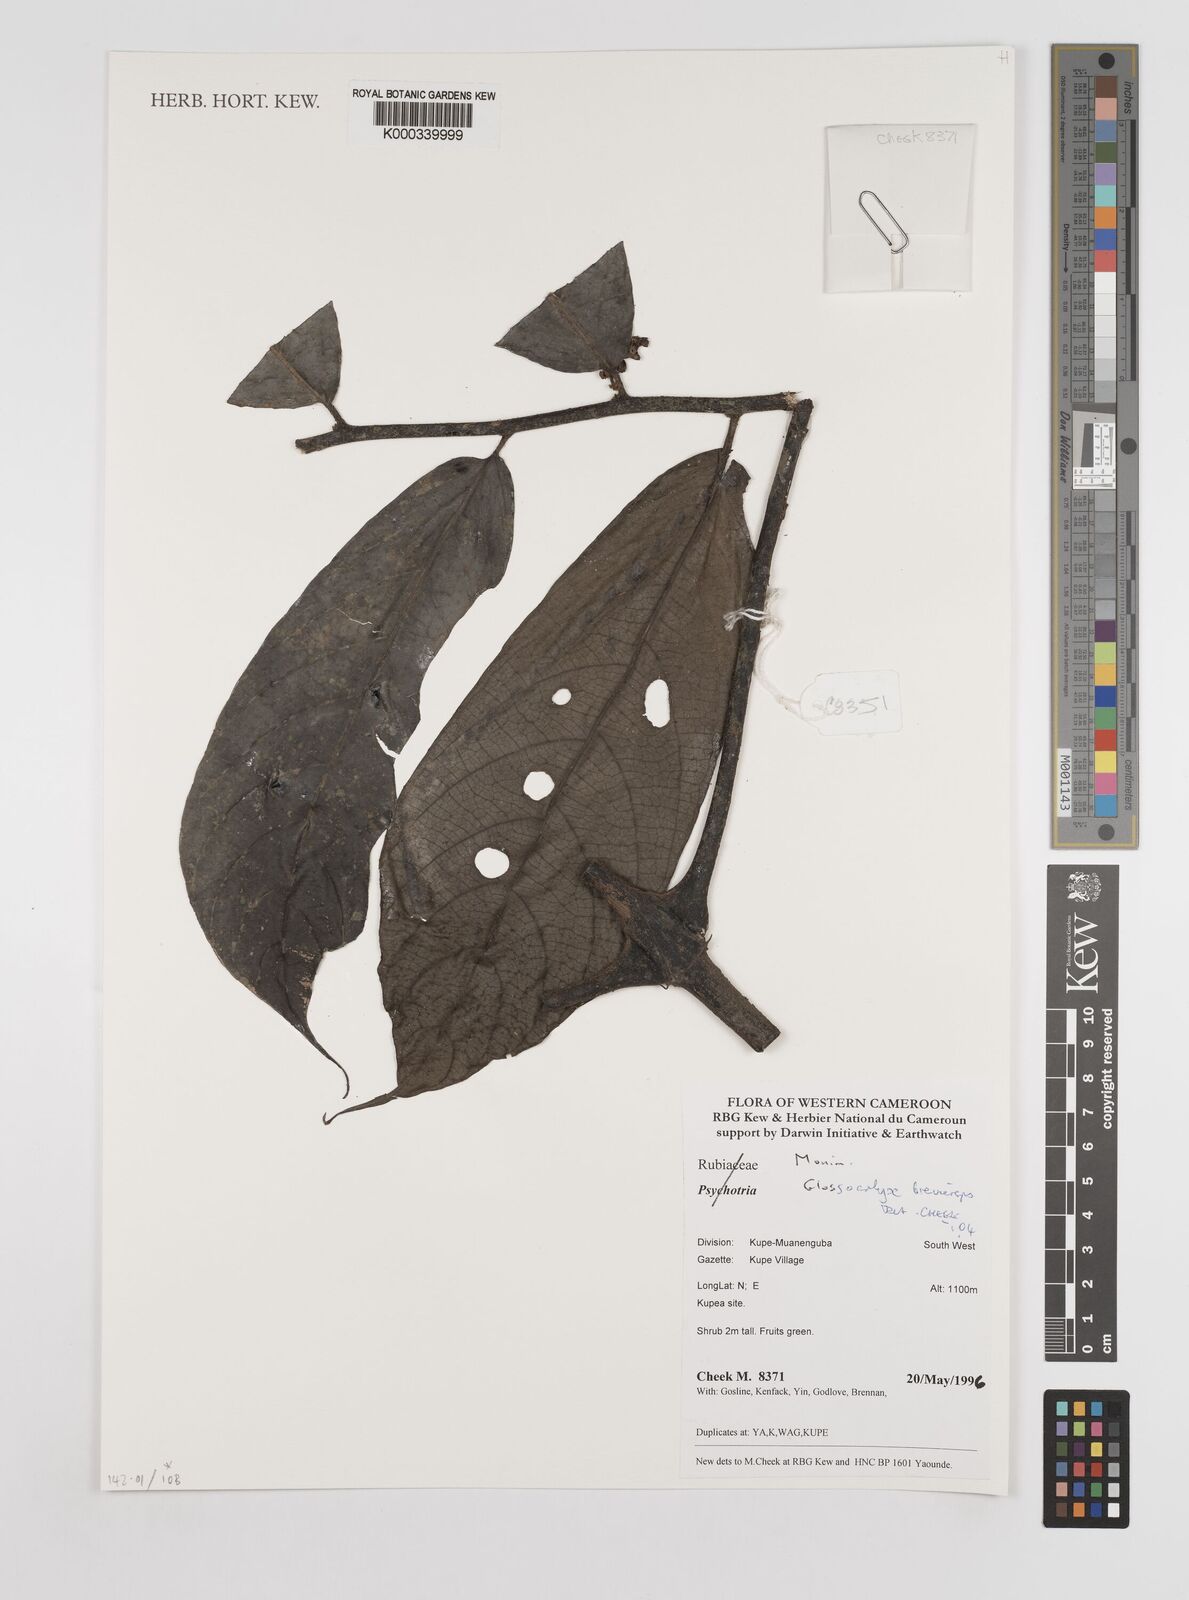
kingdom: Plantae
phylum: Tracheophyta
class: Magnoliopsida
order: Laurales
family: Siparunaceae
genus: Glossocalyx
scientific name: Glossocalyx brevipes
